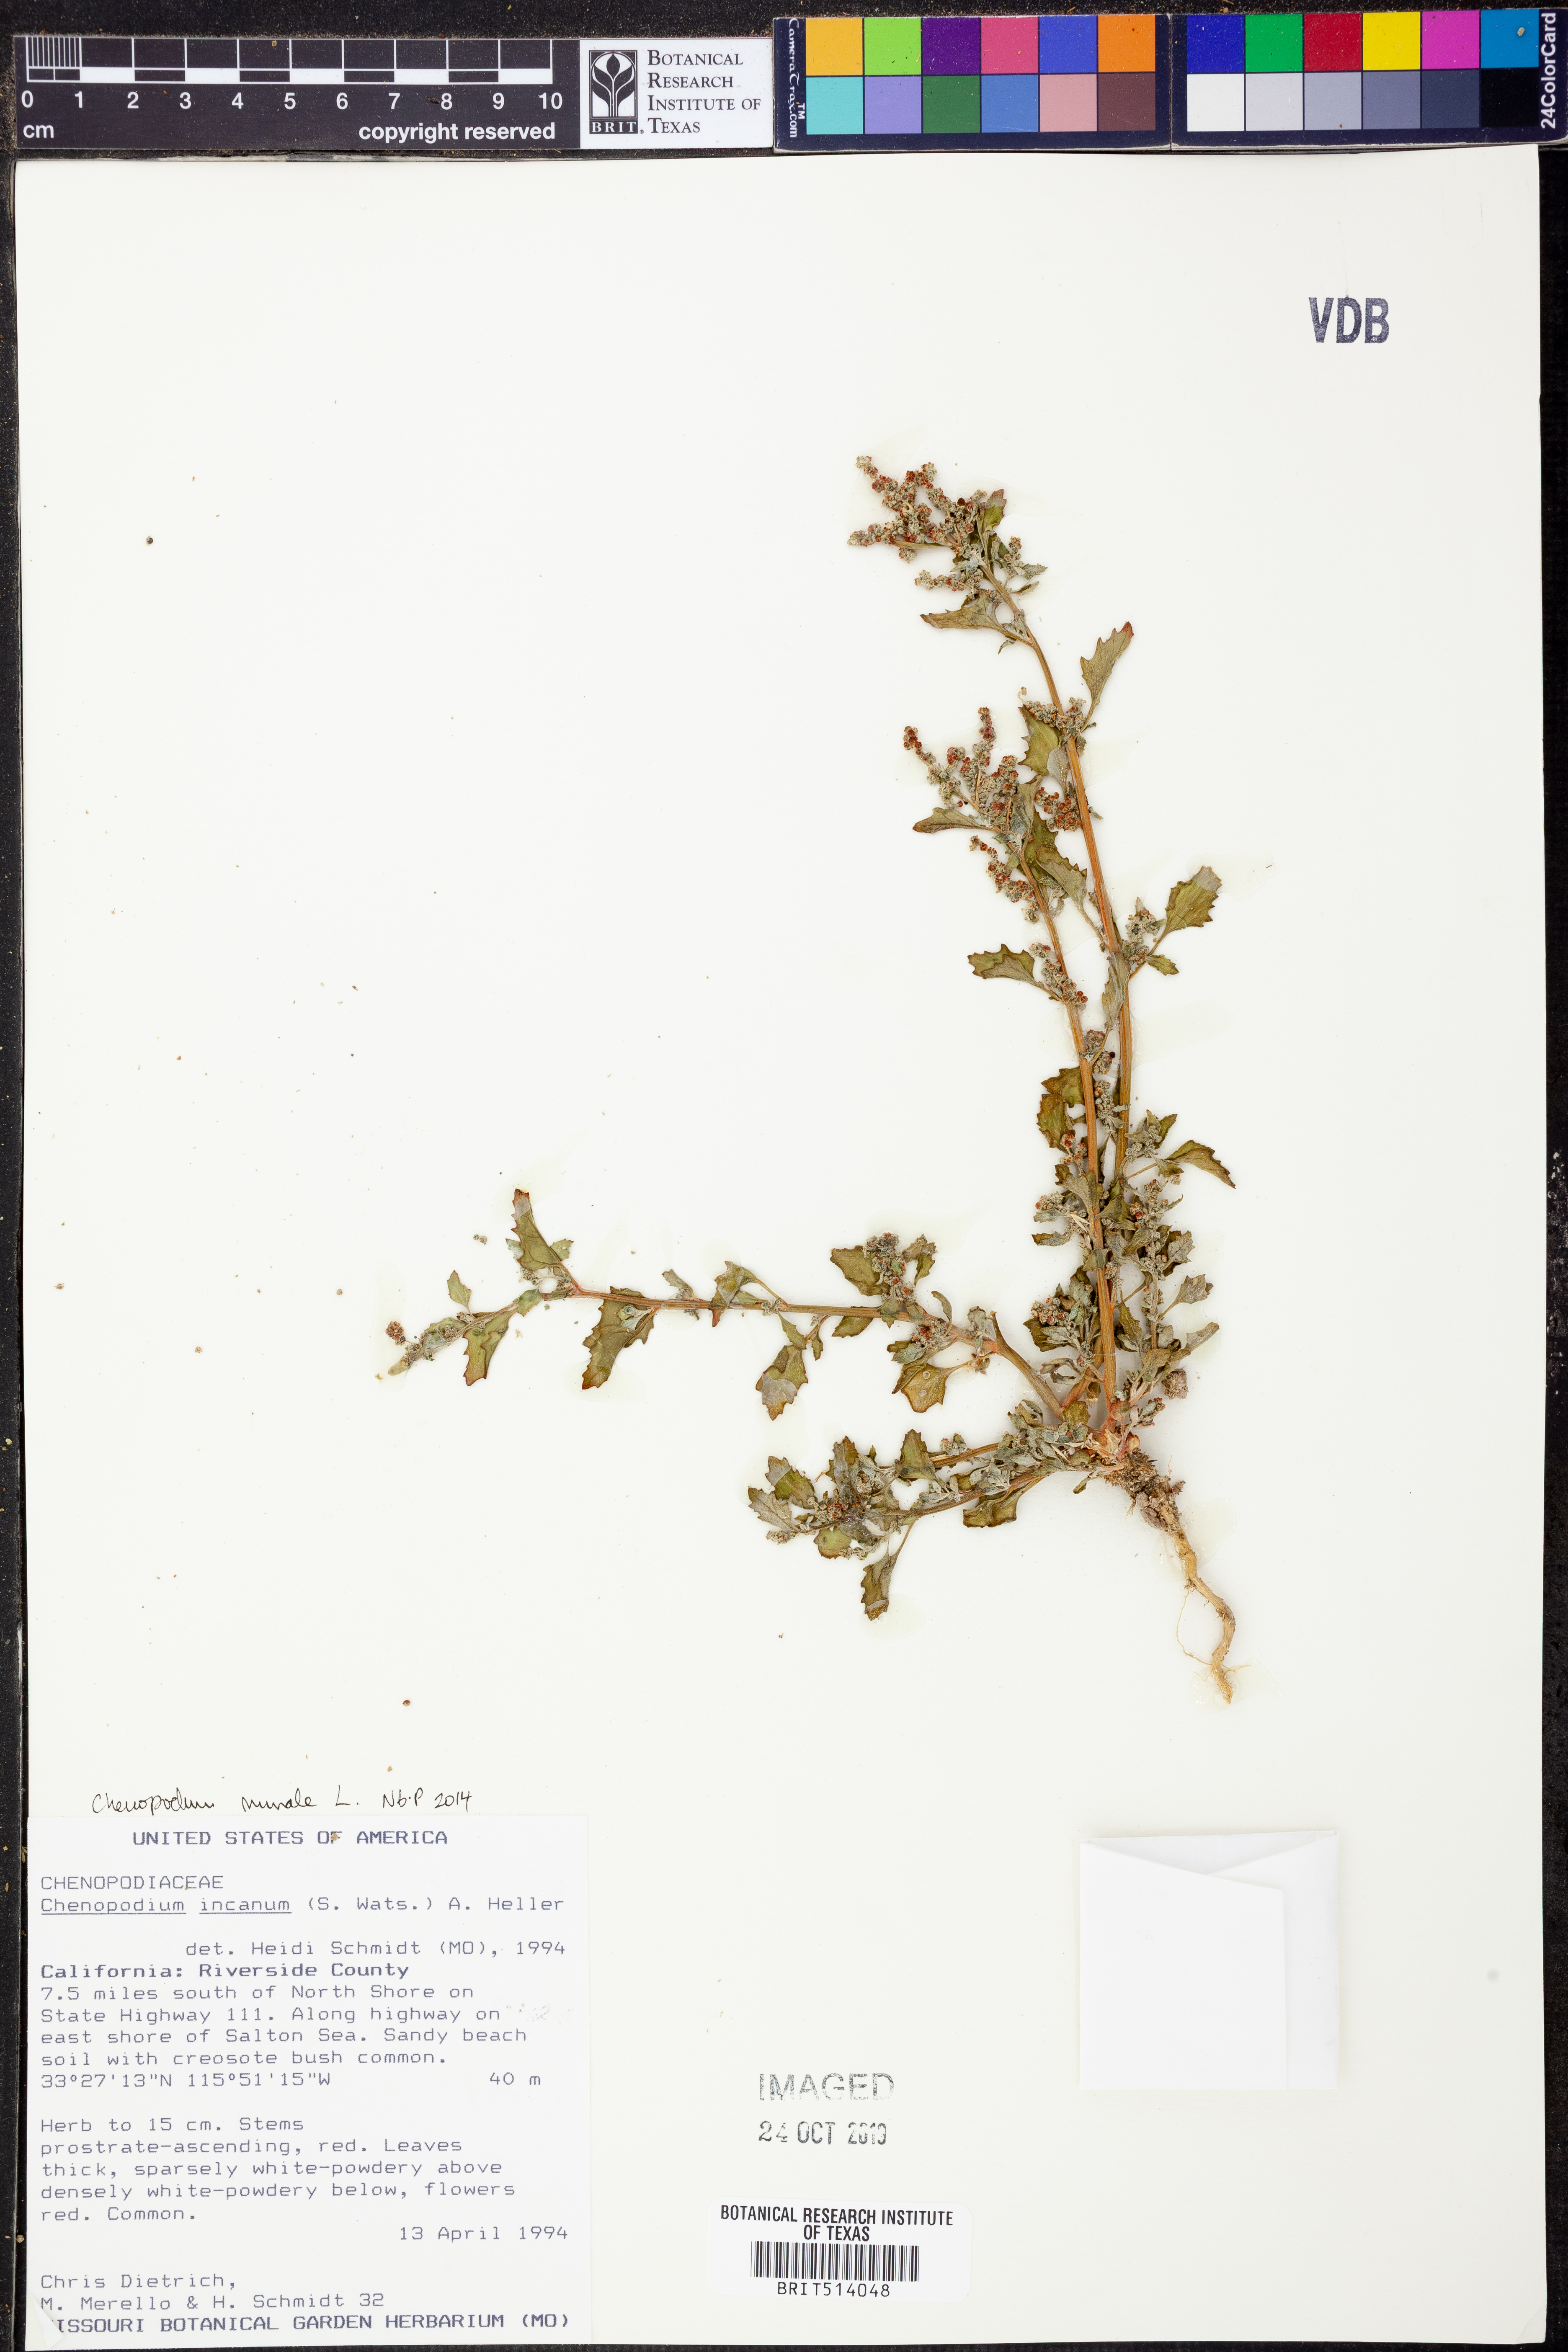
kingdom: Plantae
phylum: Tracheophyta
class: Magnoliopsida
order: Caryophyllales
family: Amaranthaceae
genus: Chenopodiastrum
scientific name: Chenopodiastrum murale
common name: Sowbane
